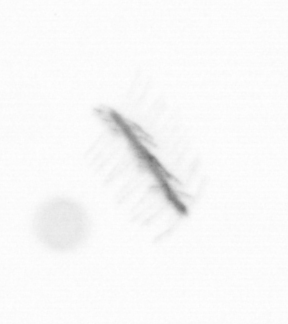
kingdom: Chromista
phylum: Ochrophyta
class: Bacillariophyceae
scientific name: Bacillariophyceae
